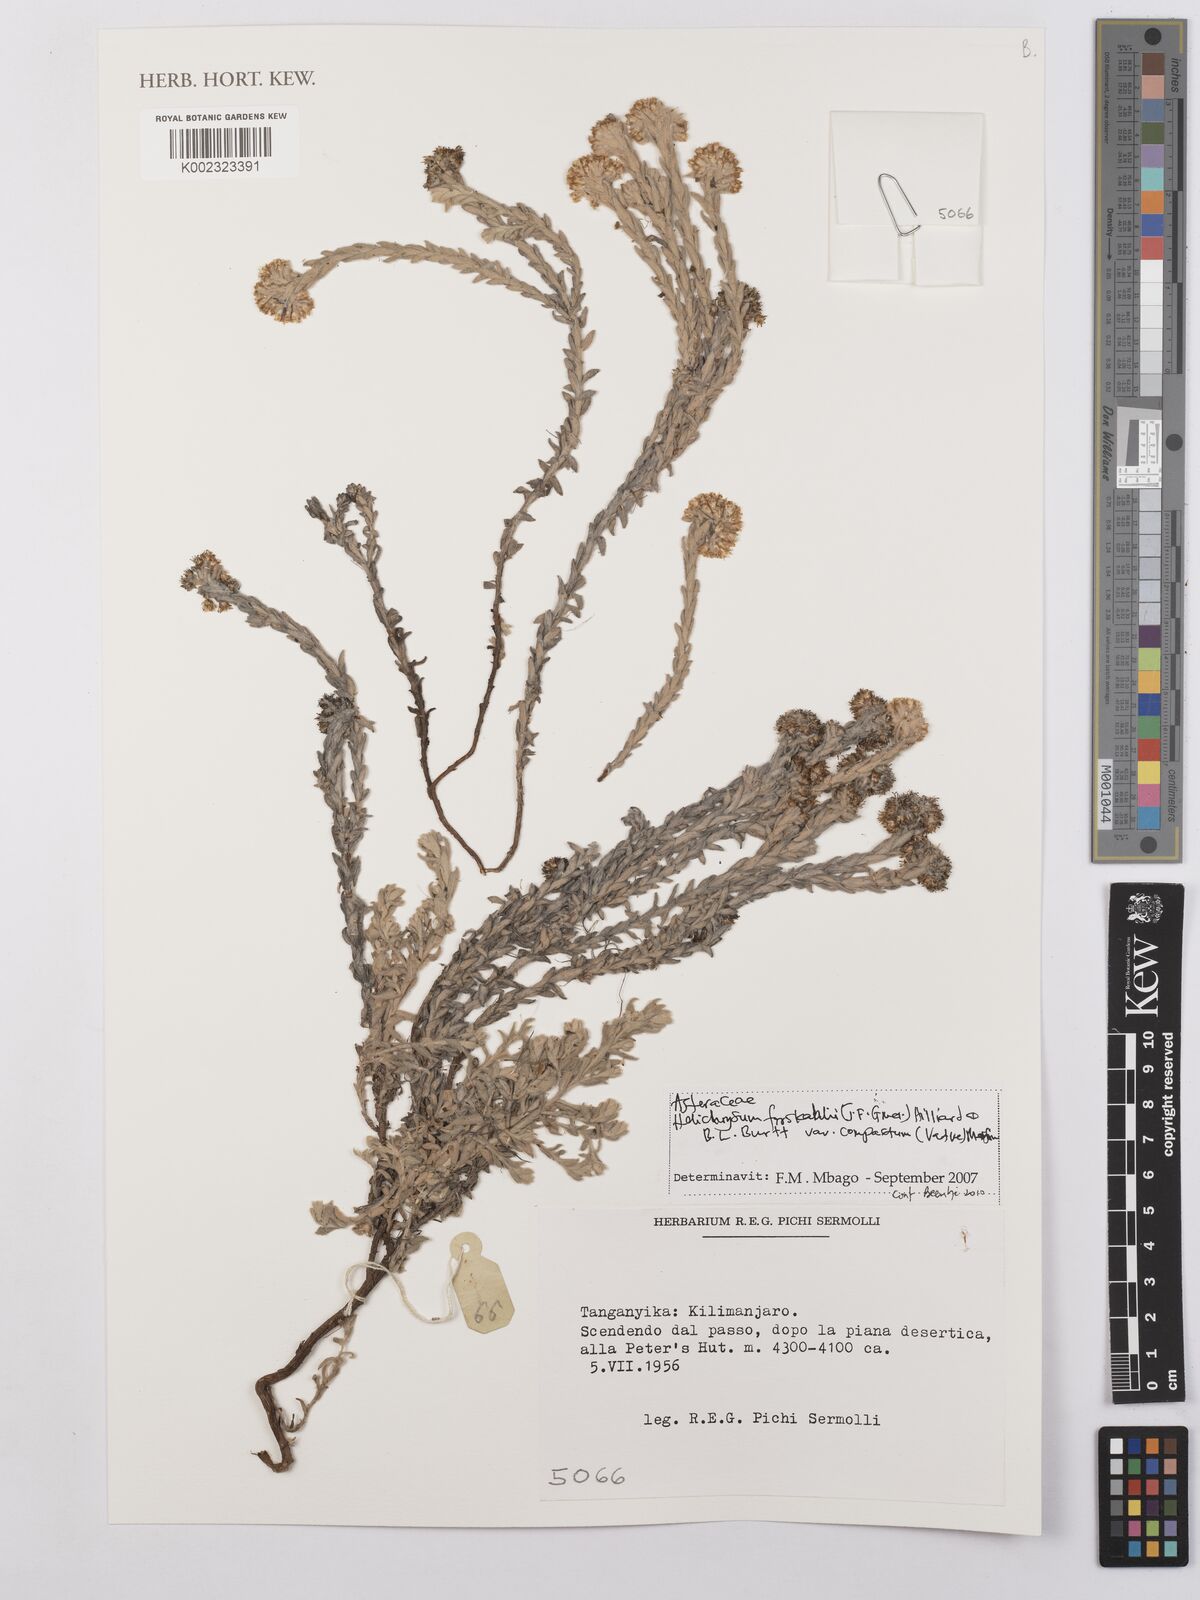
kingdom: Plantae
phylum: Tracheophyta
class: Magnoliopsida
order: Asterales
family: Asteraceae
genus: Helichrysum
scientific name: Helichrysum forskahlii
